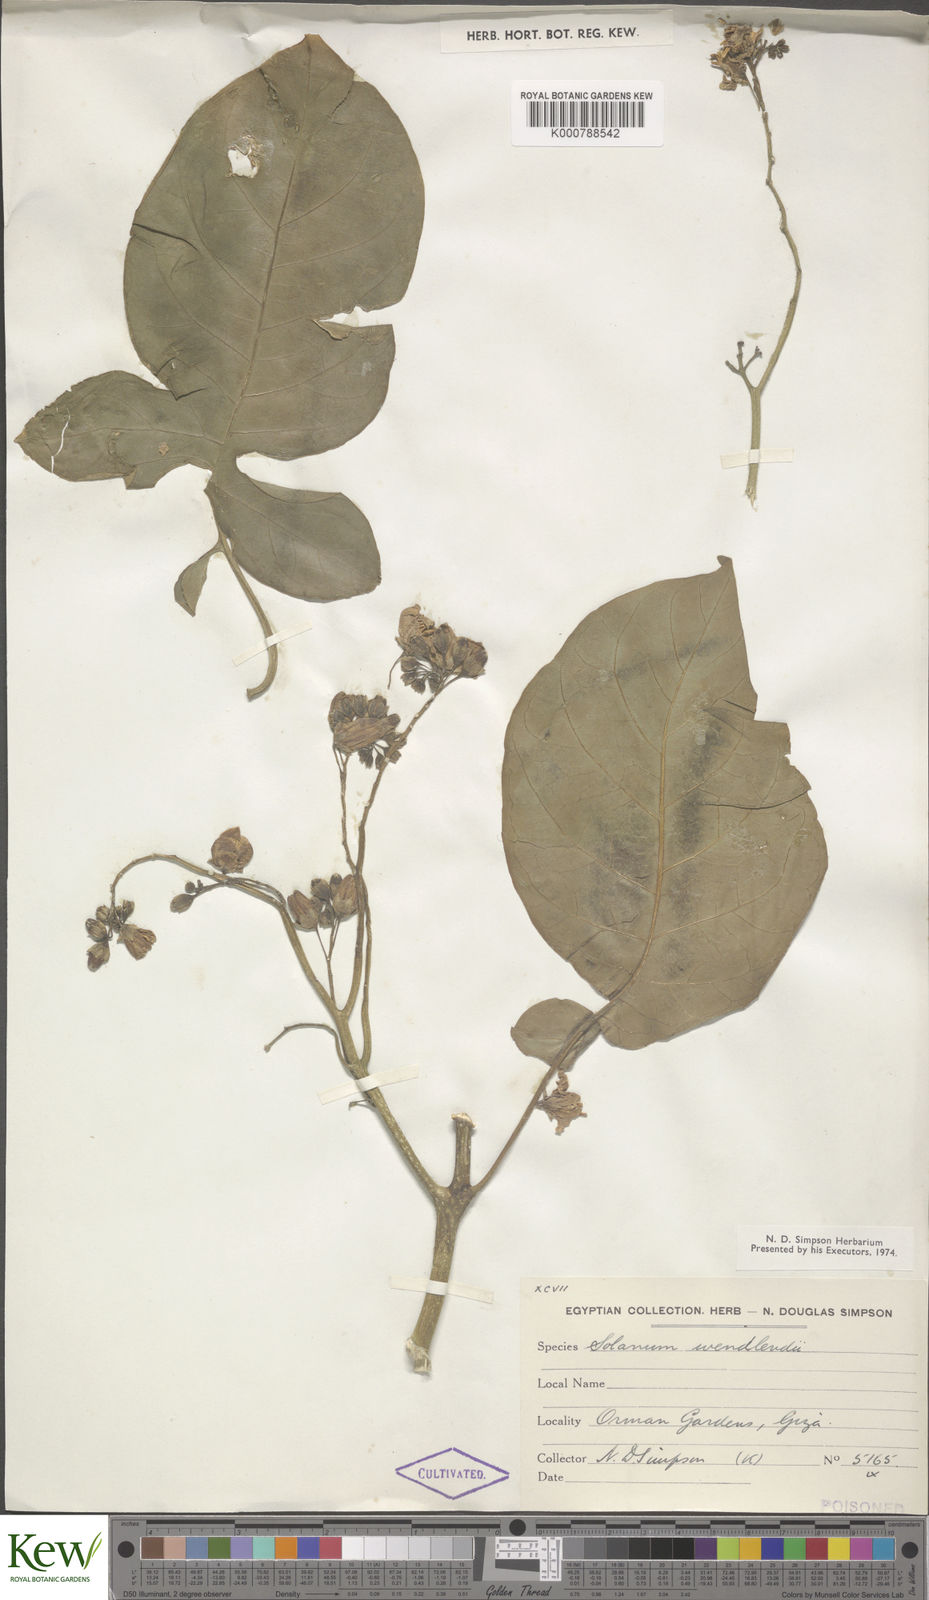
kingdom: Plantae
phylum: Tracheophyta
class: Magnoliopsida
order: Solanales
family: Solanaceae
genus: Solanum
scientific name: Solanum wendlandii
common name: Costa rican nightshade
